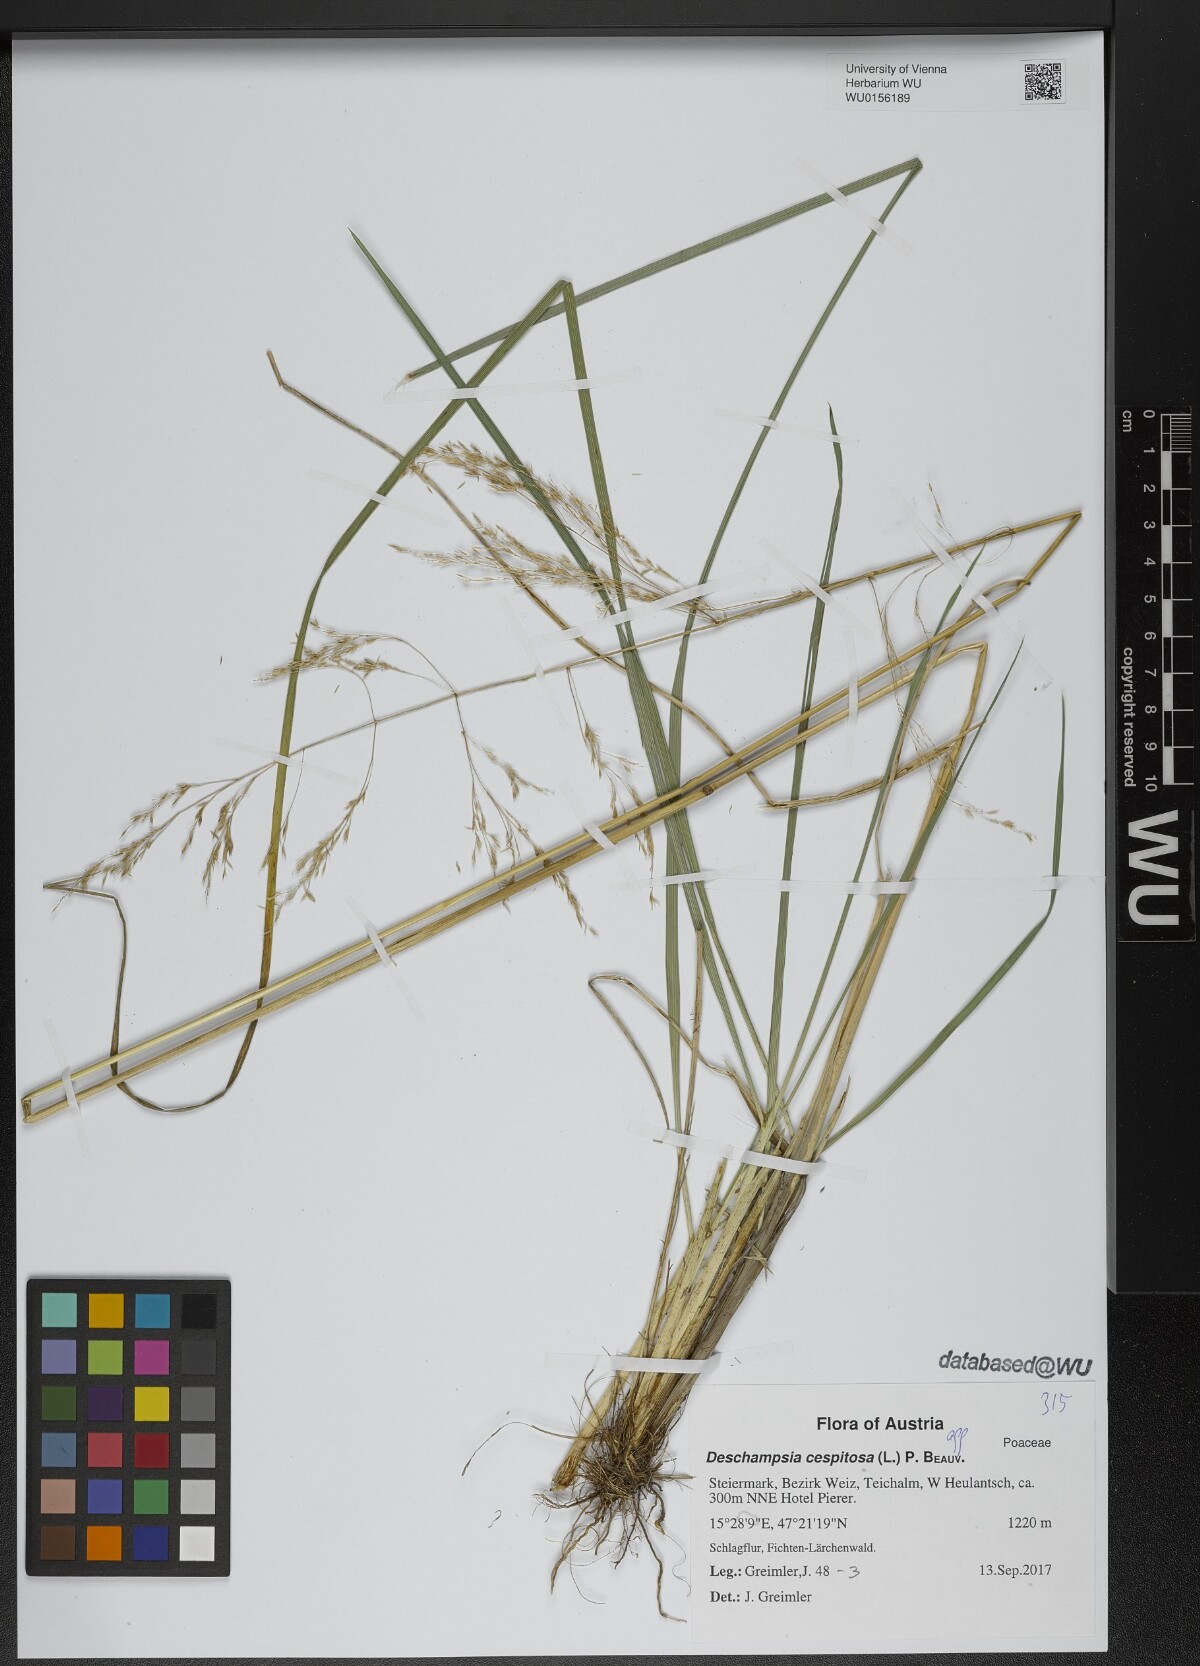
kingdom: Plantae
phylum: Tracheophyta
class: Liliopsida
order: Poales
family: Poaceae
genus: Deschampsia
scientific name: Deschampsia cespitosa
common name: Tufted hair-grass
